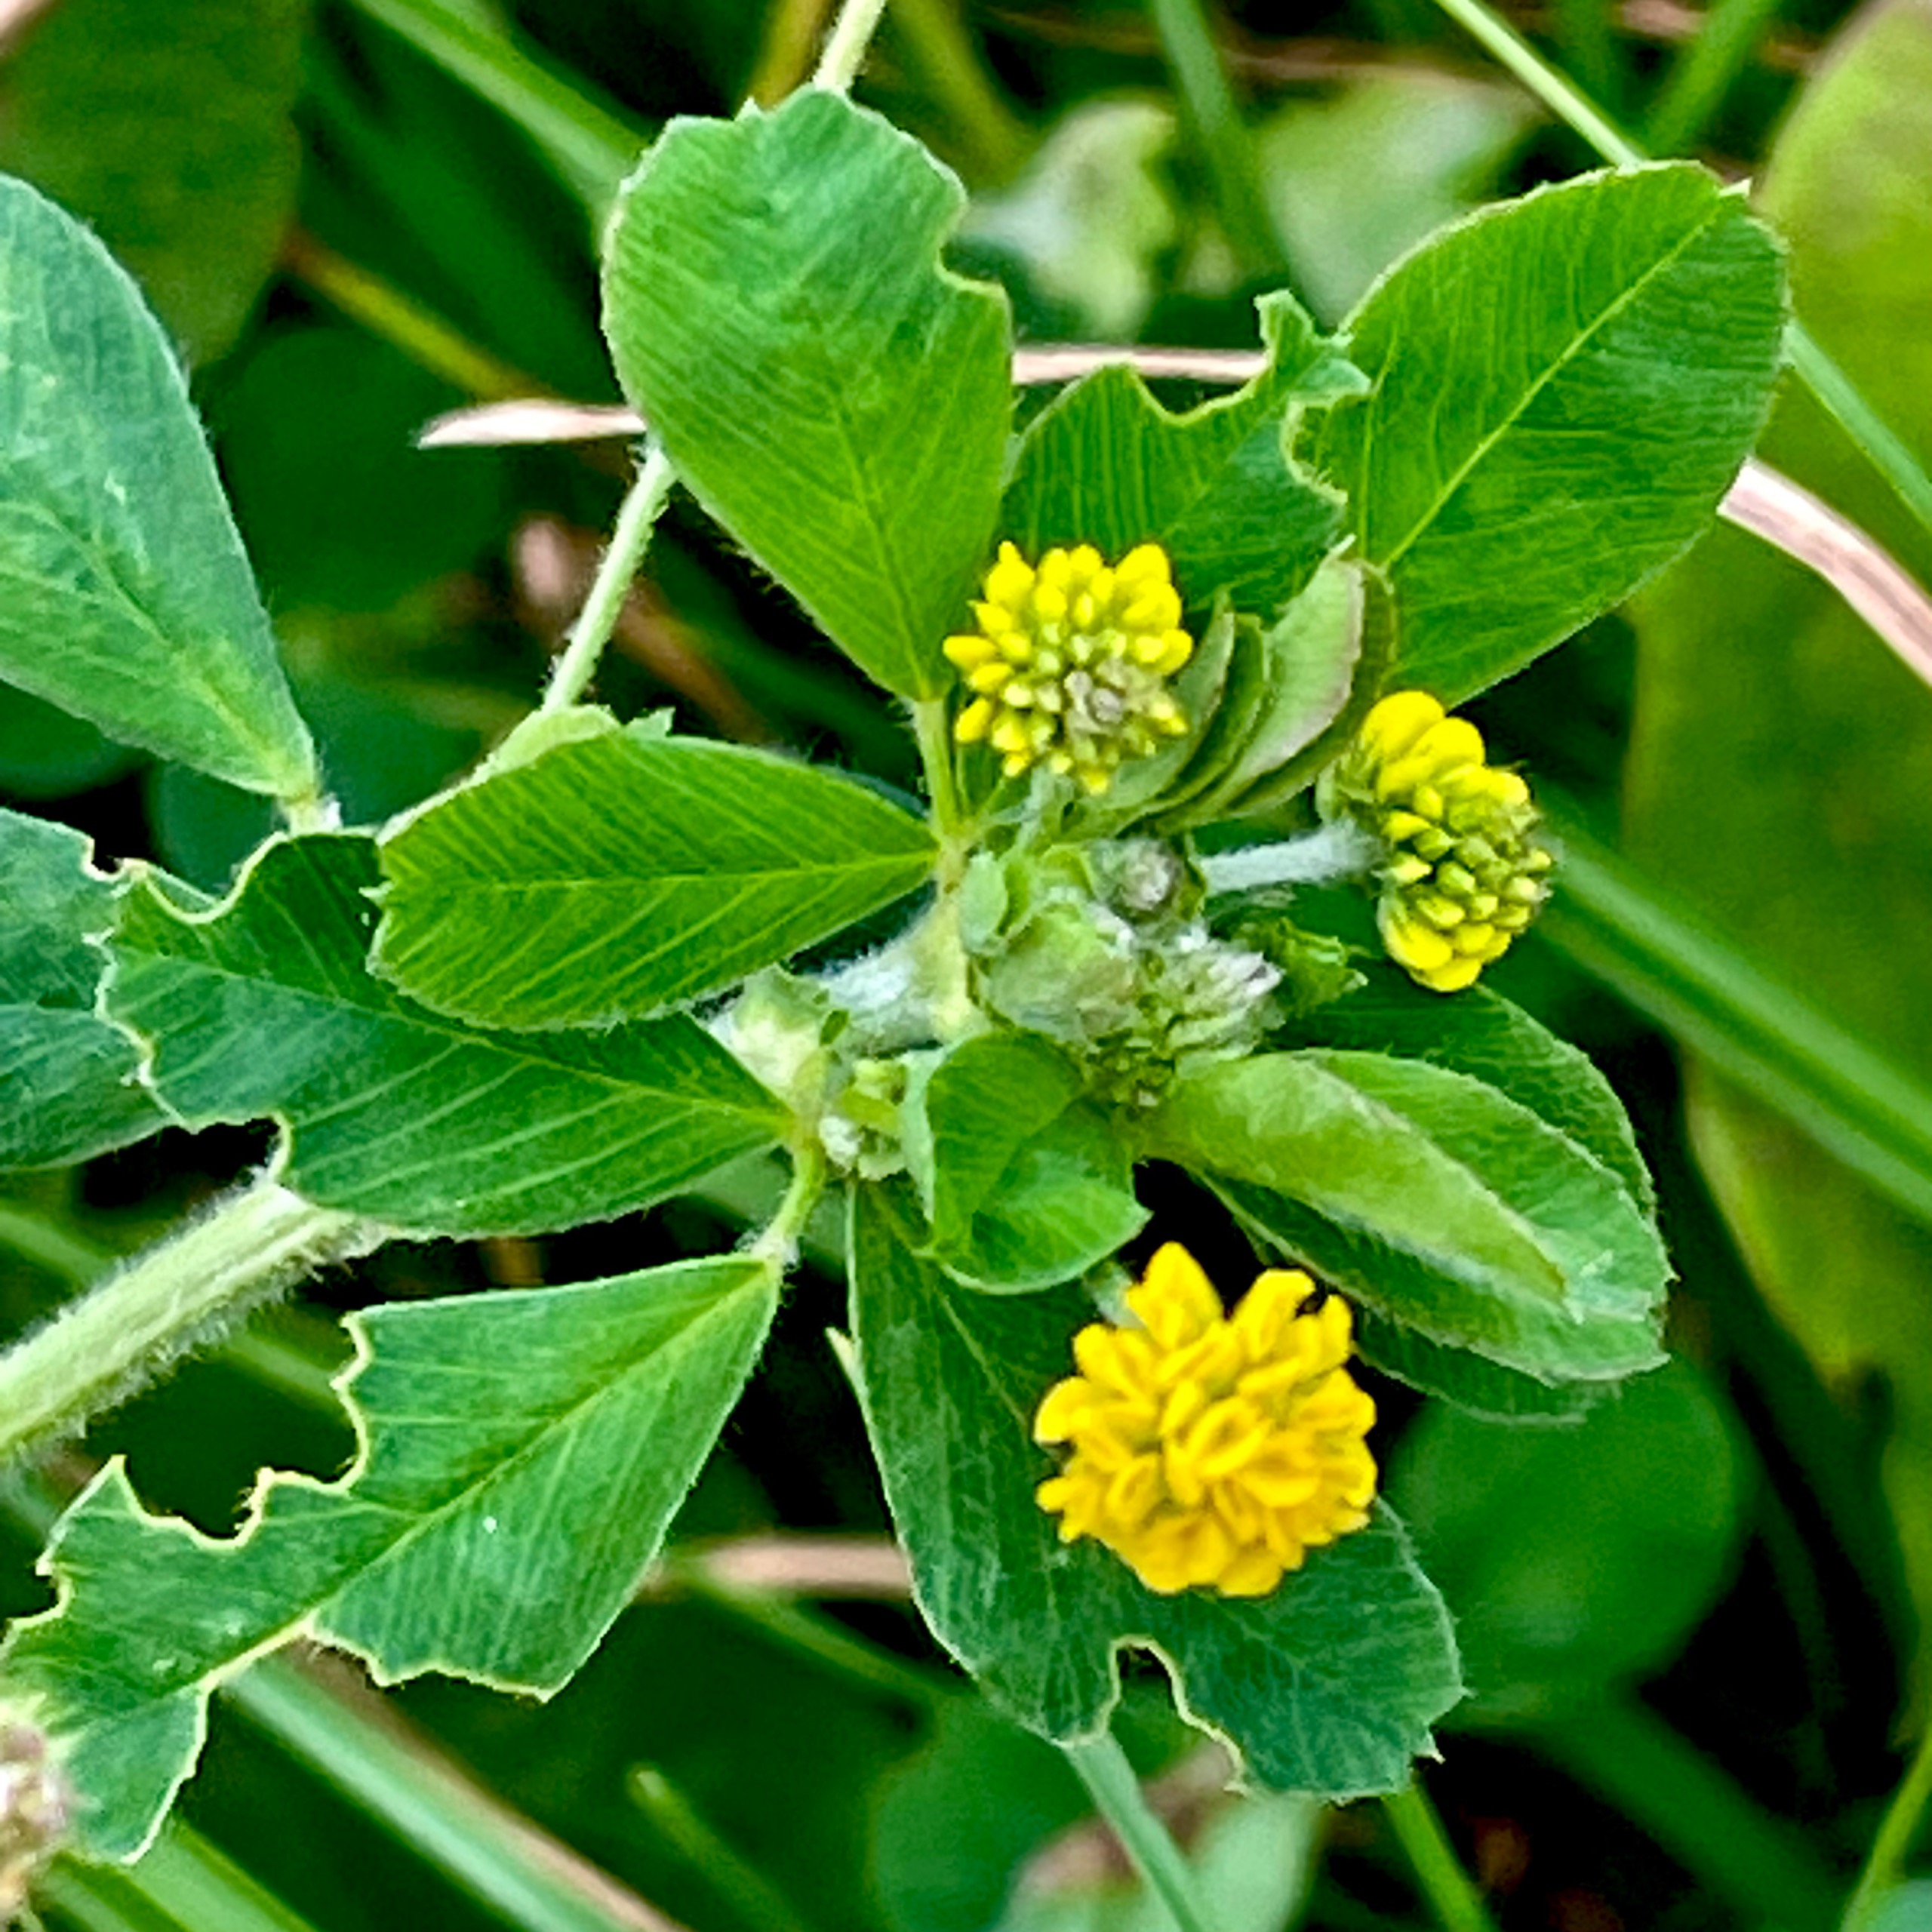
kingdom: Plantae
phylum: Tracheophyta
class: Magnoliopsida
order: Fabales
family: Fabaceae
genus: Medicago
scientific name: Medicago lupulina
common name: Humle-sneglebælg
